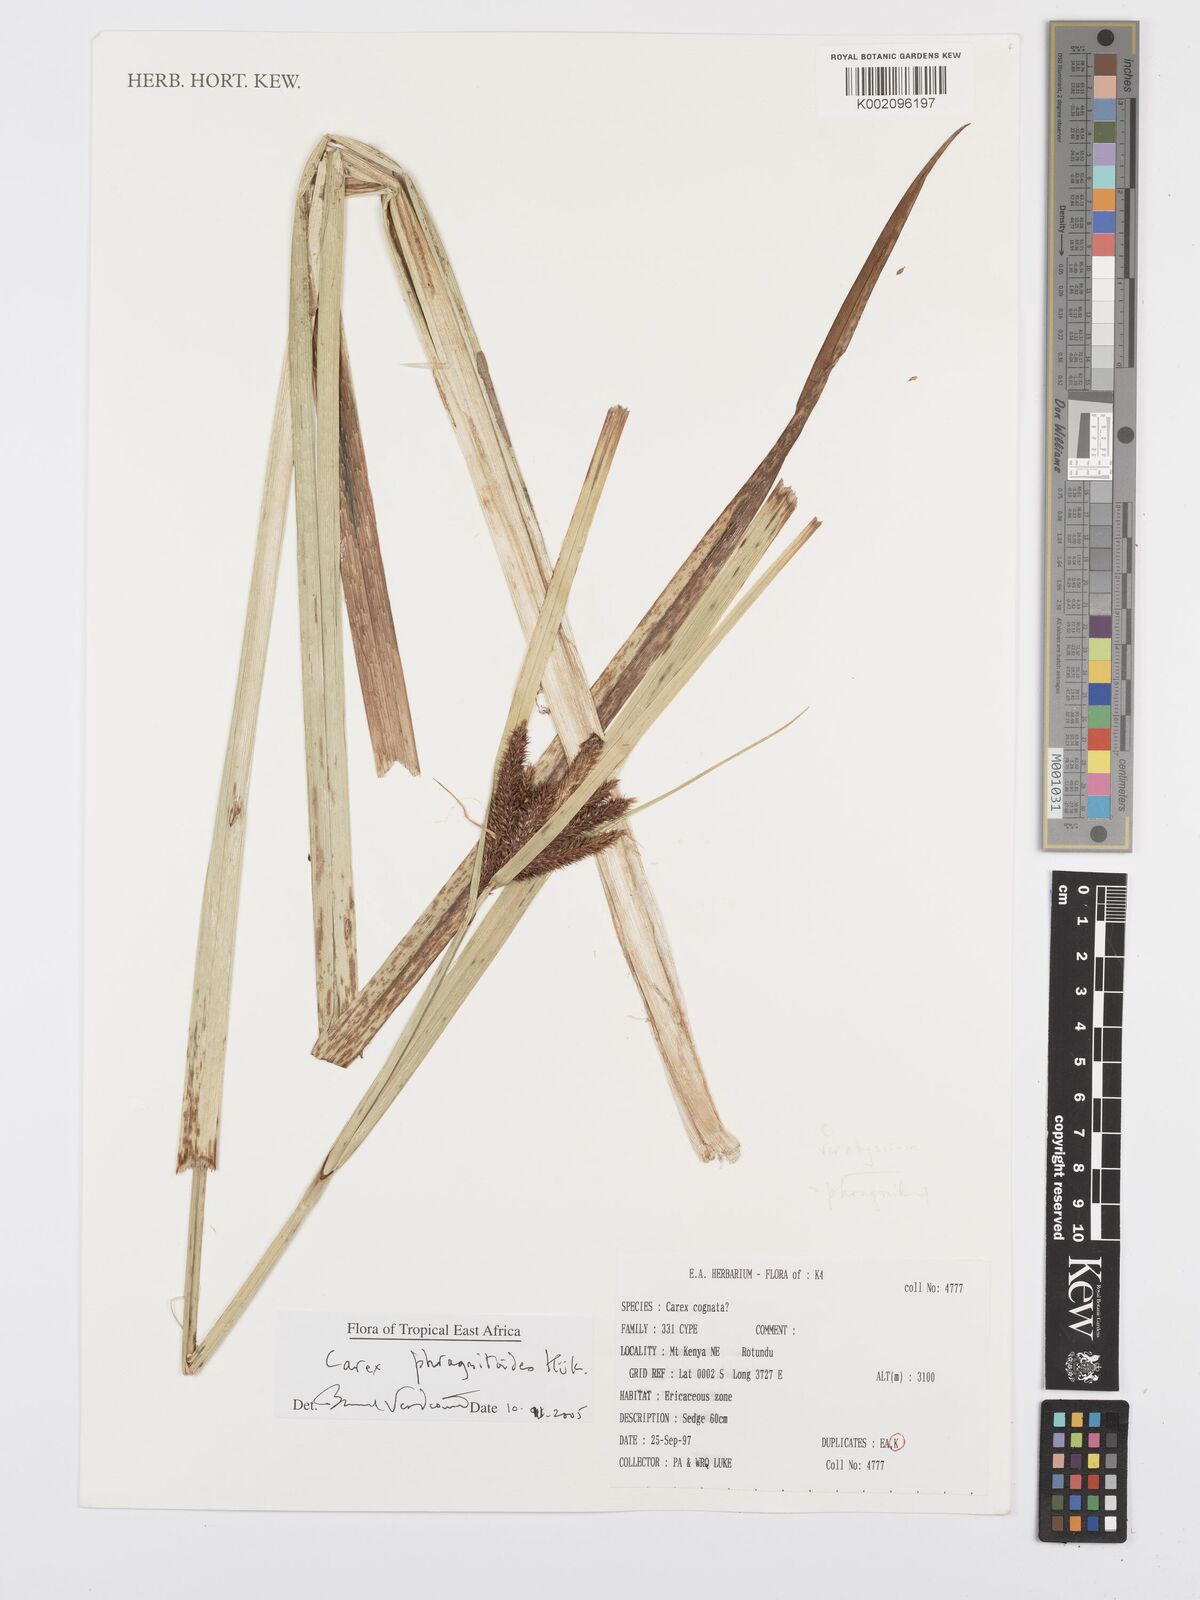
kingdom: Plantae
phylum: Tracheophyta
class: Liliopsida
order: Poales
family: Cyperaceae
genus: Carex
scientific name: Carex phragmitoides
